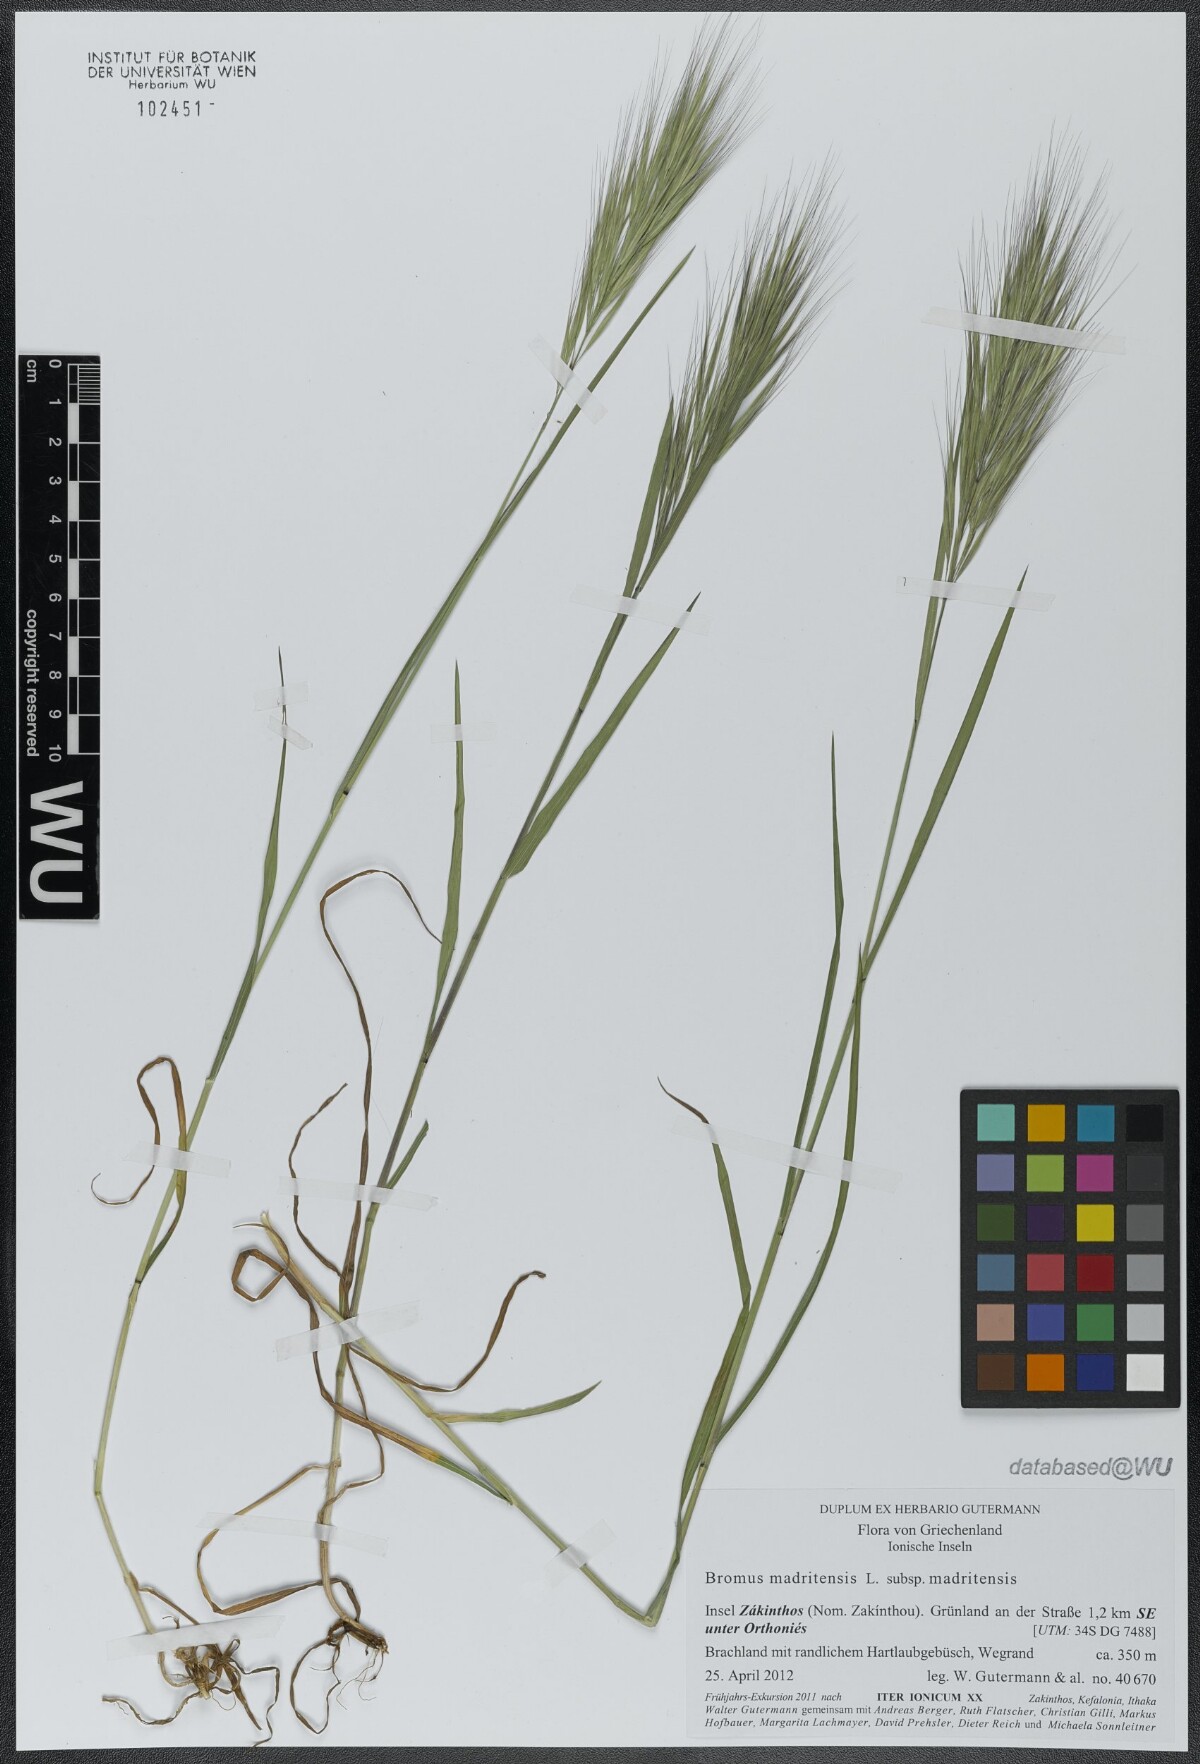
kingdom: Plantae
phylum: Tracheophyta
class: Liliopsida
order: Poales
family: Poaceae
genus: Bromus
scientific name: Bromus madritensis
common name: Compact brome
